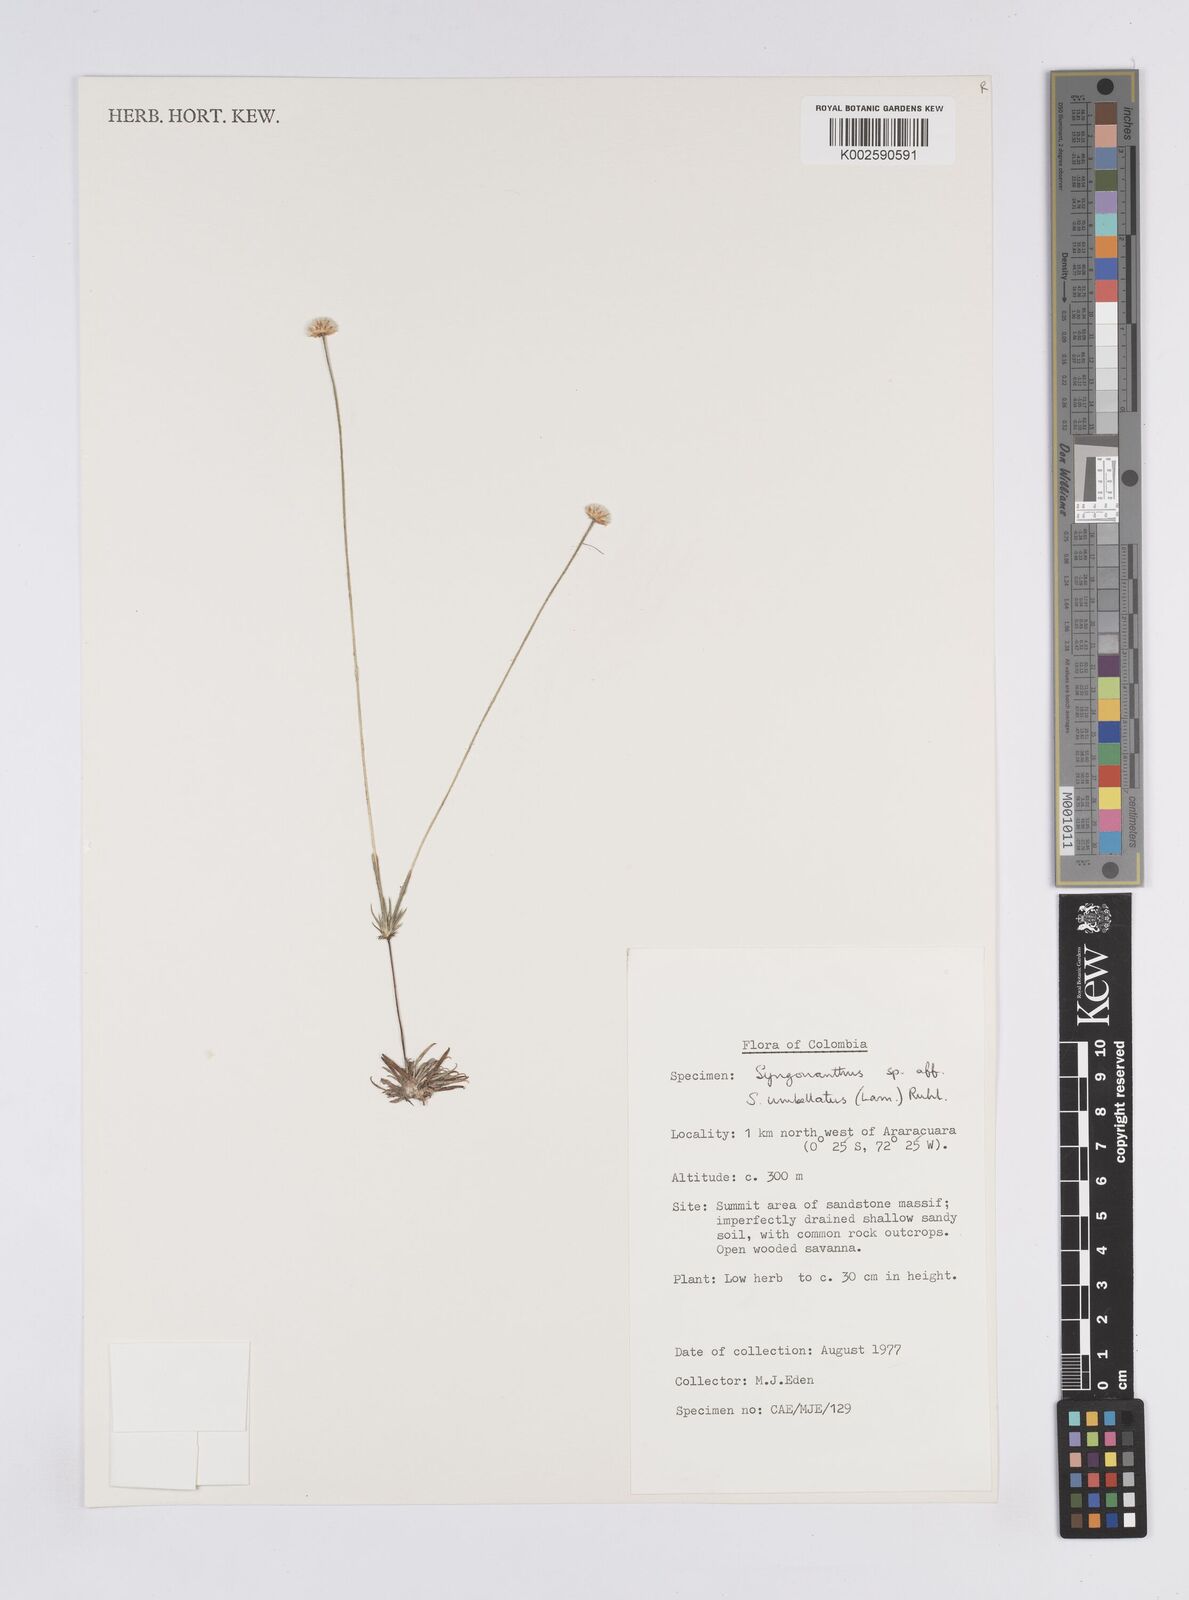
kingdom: Plantae
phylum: Tracheophyta
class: Liliopsida
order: Poales
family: Eriocaulaceae
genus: Syngonanthus
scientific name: Syngonanthus umbellatus
